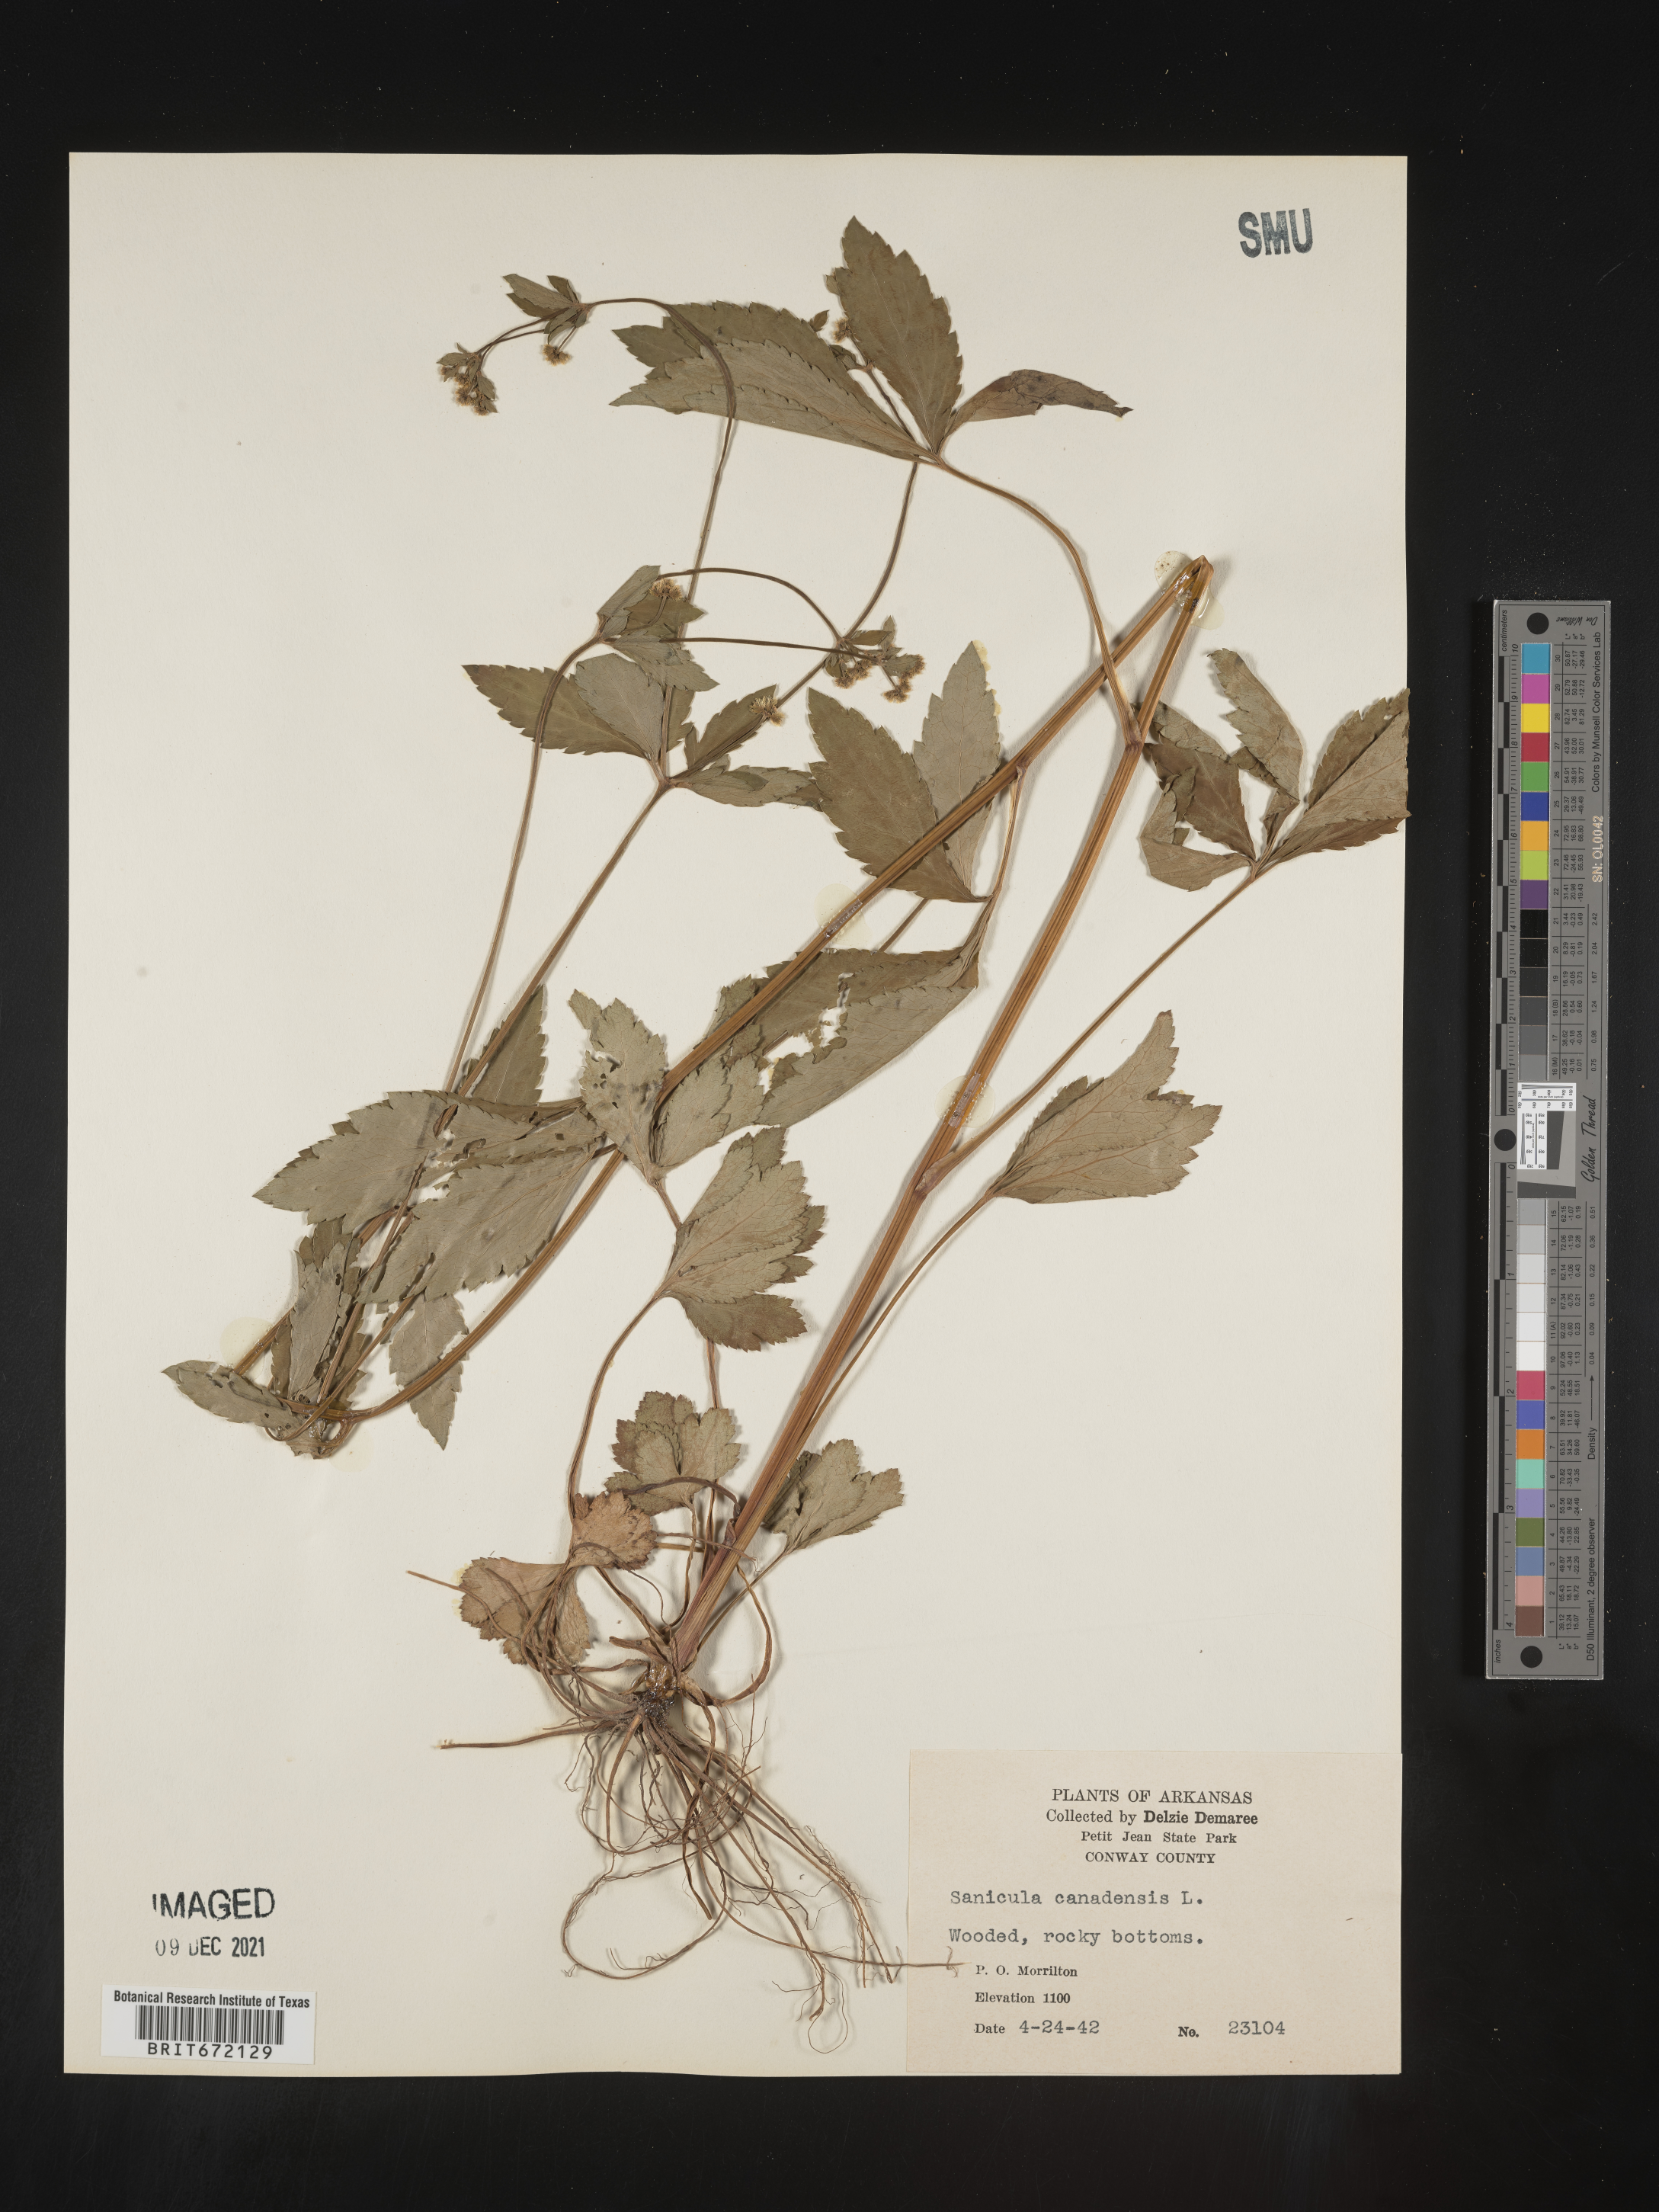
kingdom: Plantae
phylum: Tracheophyta
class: Magnoliopsida
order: Apiales
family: Apiaceae
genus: Sanicula
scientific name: Sanicula canadensis
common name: Canada sanicle
